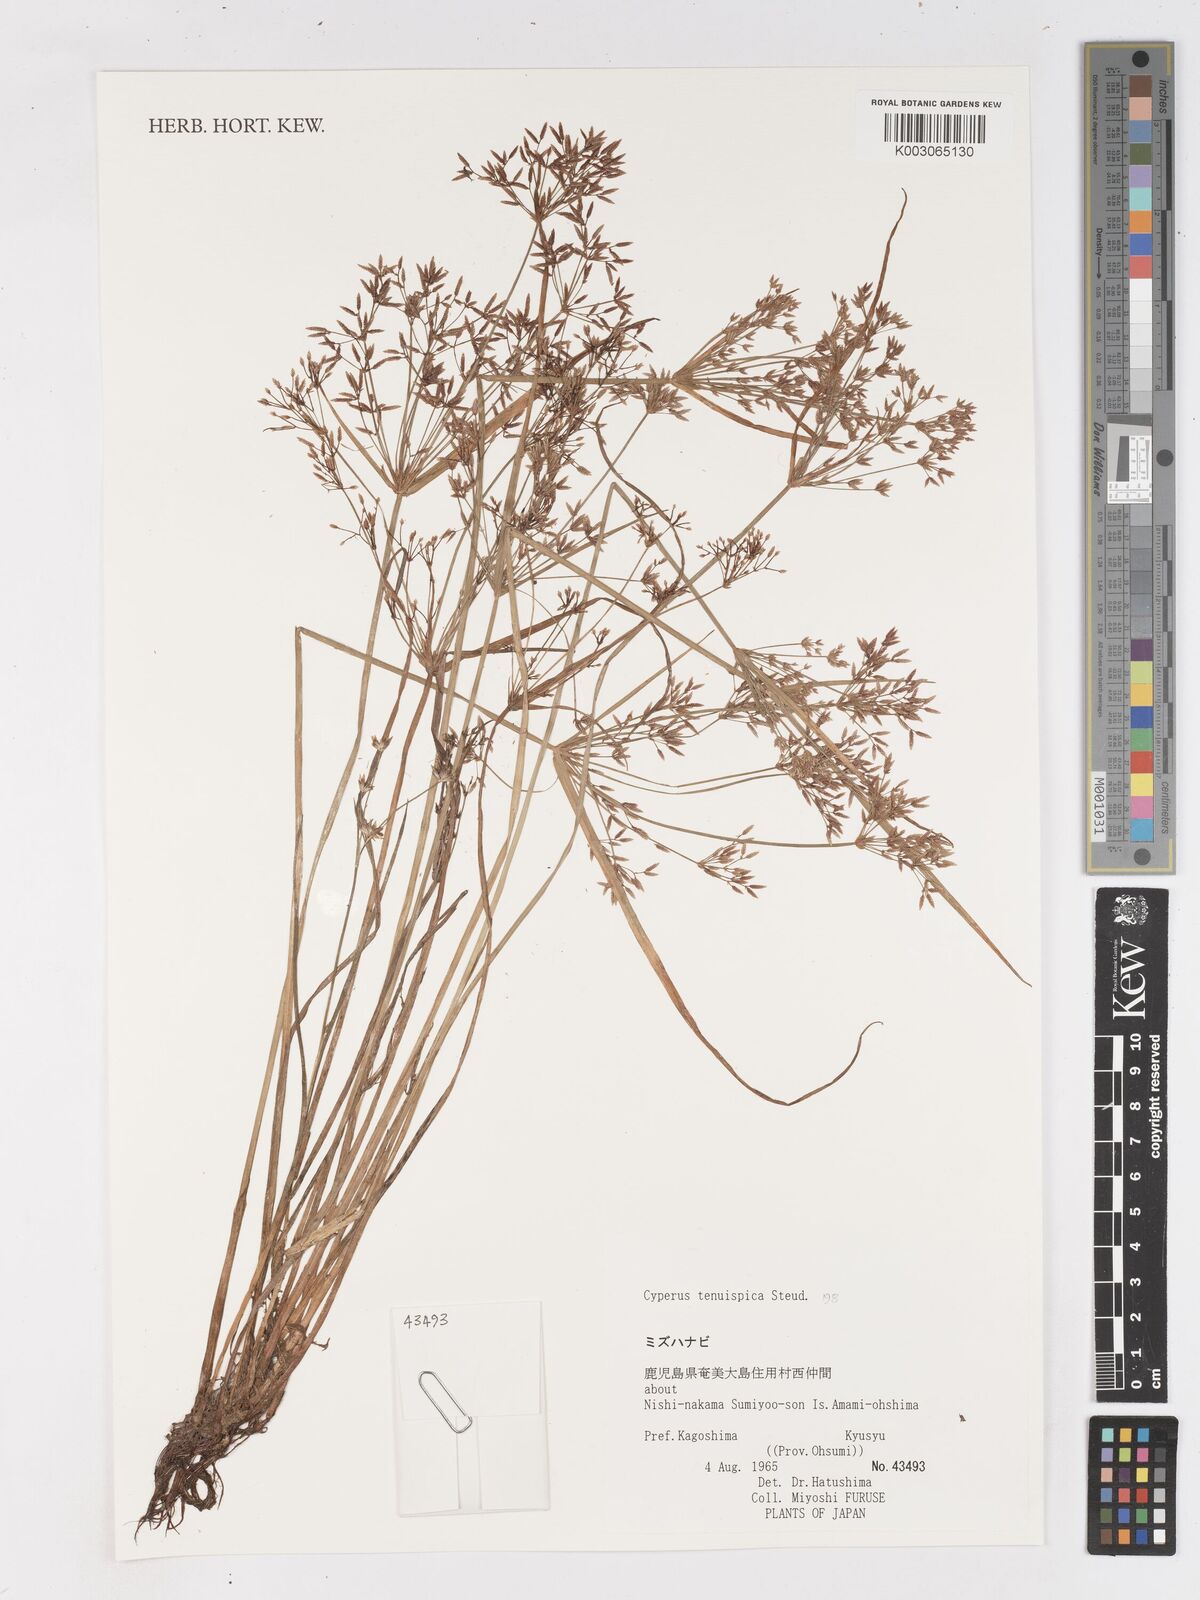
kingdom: Plantae
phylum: Tracheophyta
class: Liliopsida
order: Poales
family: Cyperaceae
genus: Cyperus
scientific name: Cyperus tenuispica
